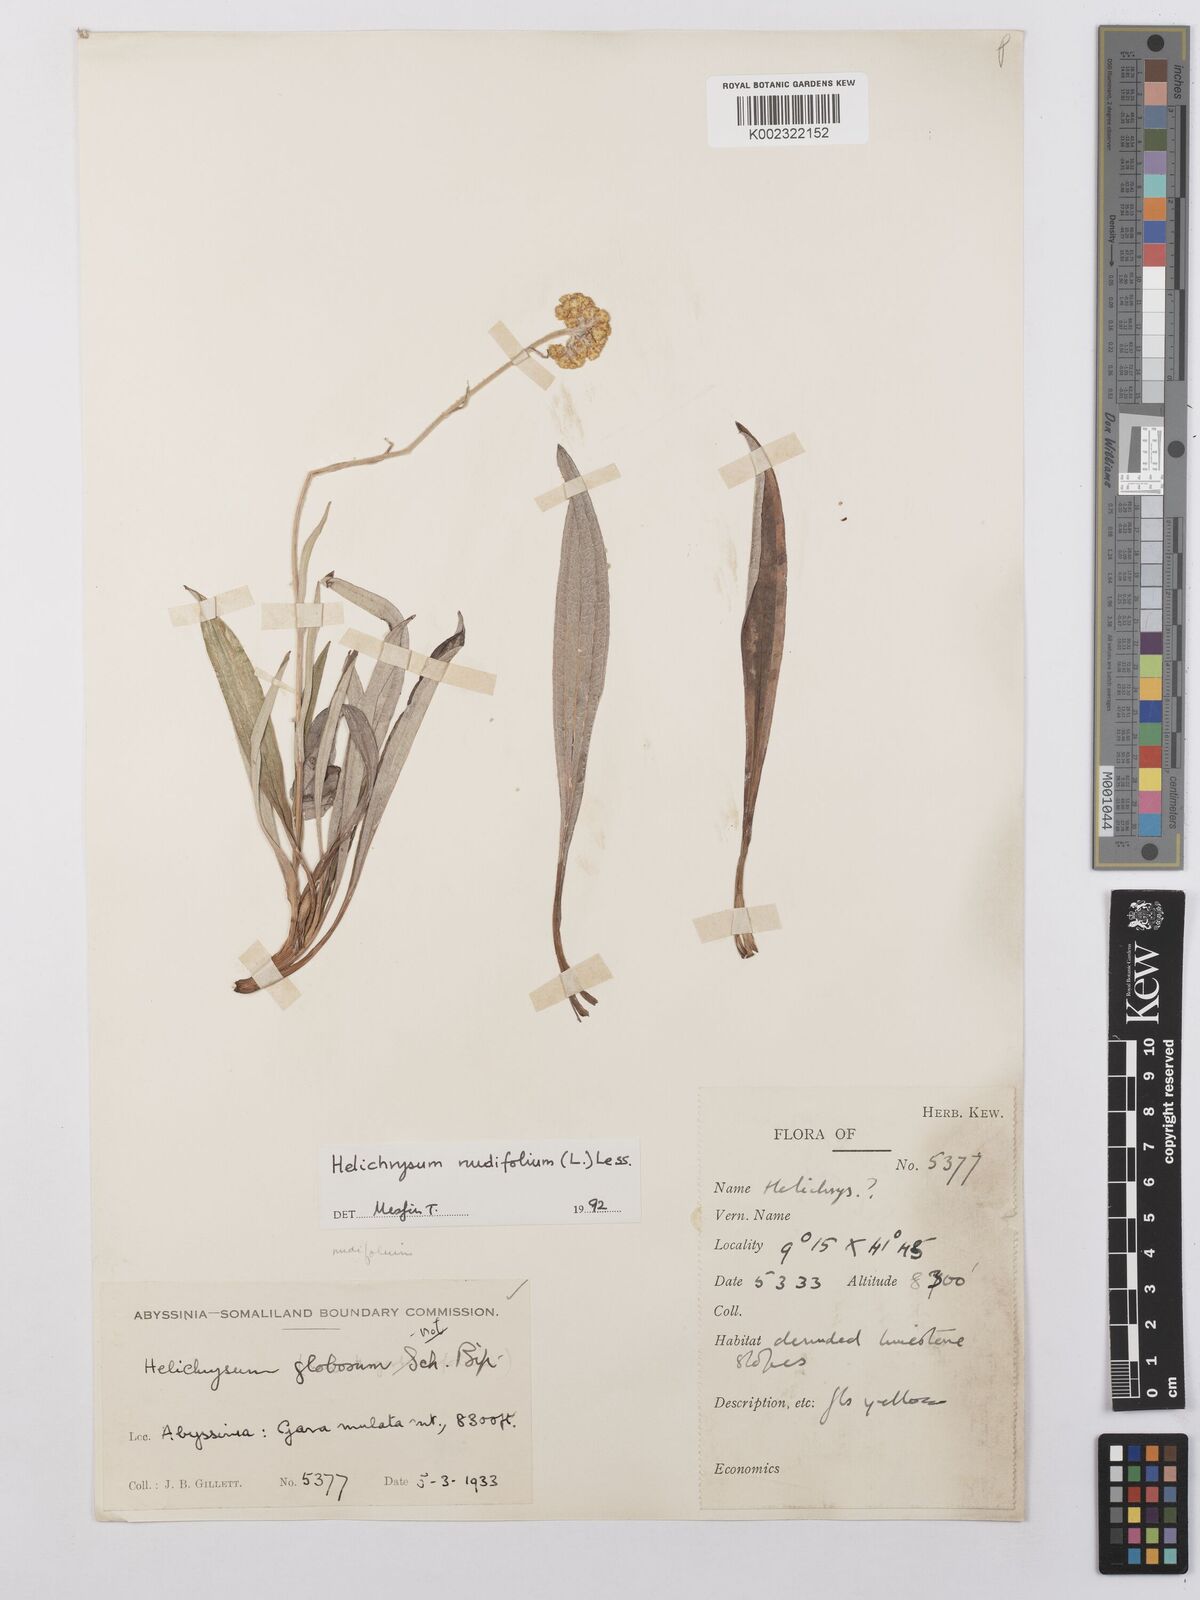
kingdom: Plantae
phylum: Tracheophyta
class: Magnoliopsida
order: Asterales
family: Asteraceae
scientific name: Asteraceae
